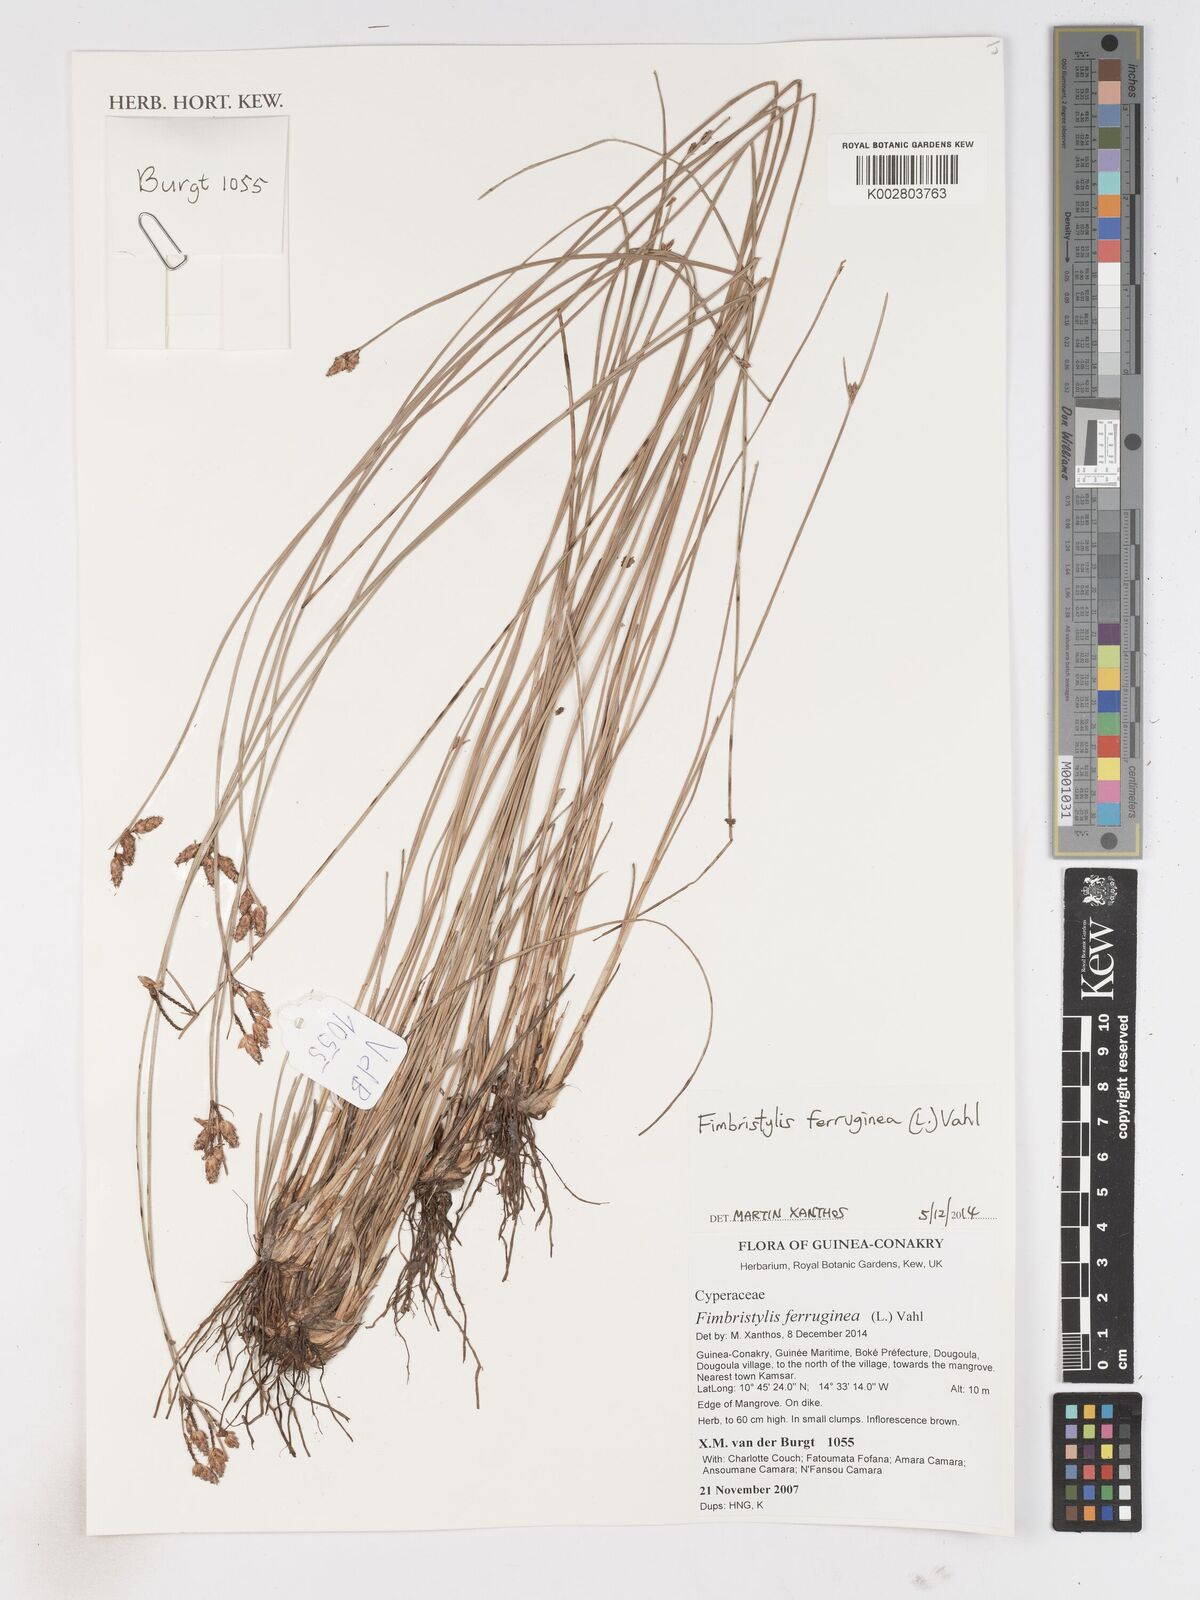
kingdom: Plantae
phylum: Tracheophyta
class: Liliopsida
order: Poales
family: Cyperaceae
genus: Fimbristylis
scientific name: Fimbristylis ferruginea
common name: West indian fimbry
